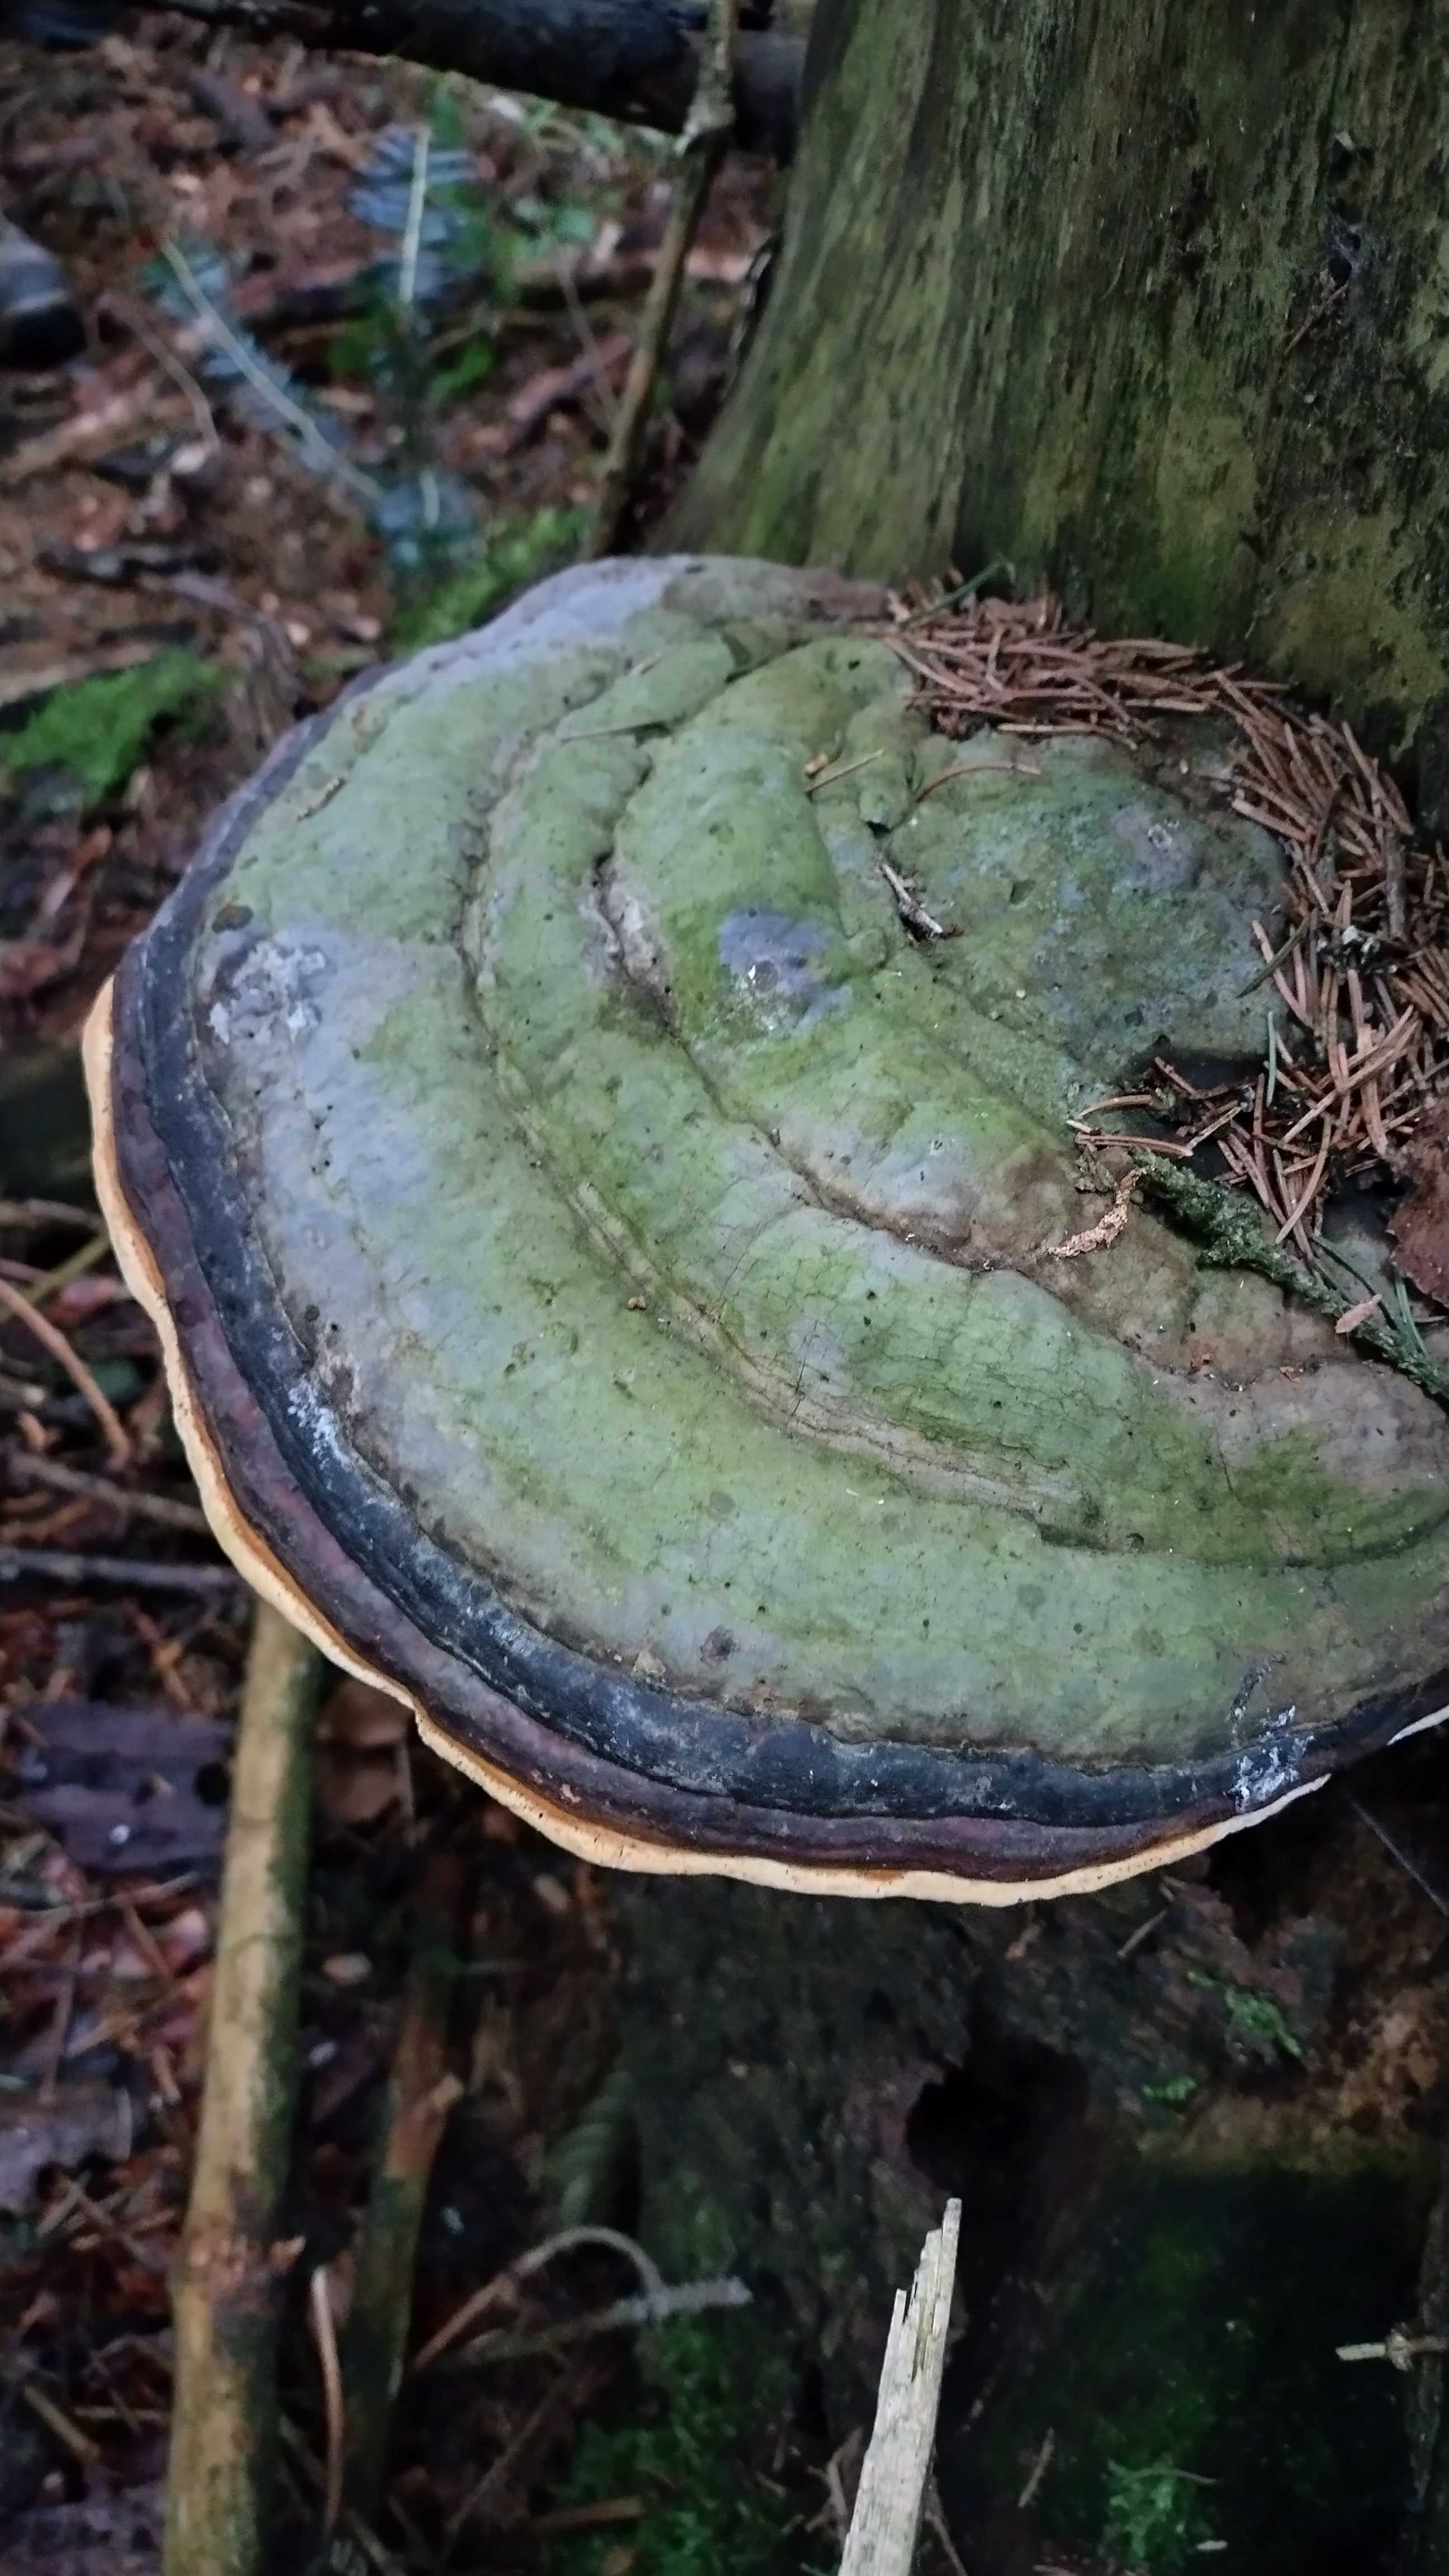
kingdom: Fungi
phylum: Basidiomycota
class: Agaricomycetes
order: Polyporales
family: Fomitopsidaceae
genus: Fomitopsis
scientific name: Fomitopsis pinicola
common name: randbæltet hovporesvamp
